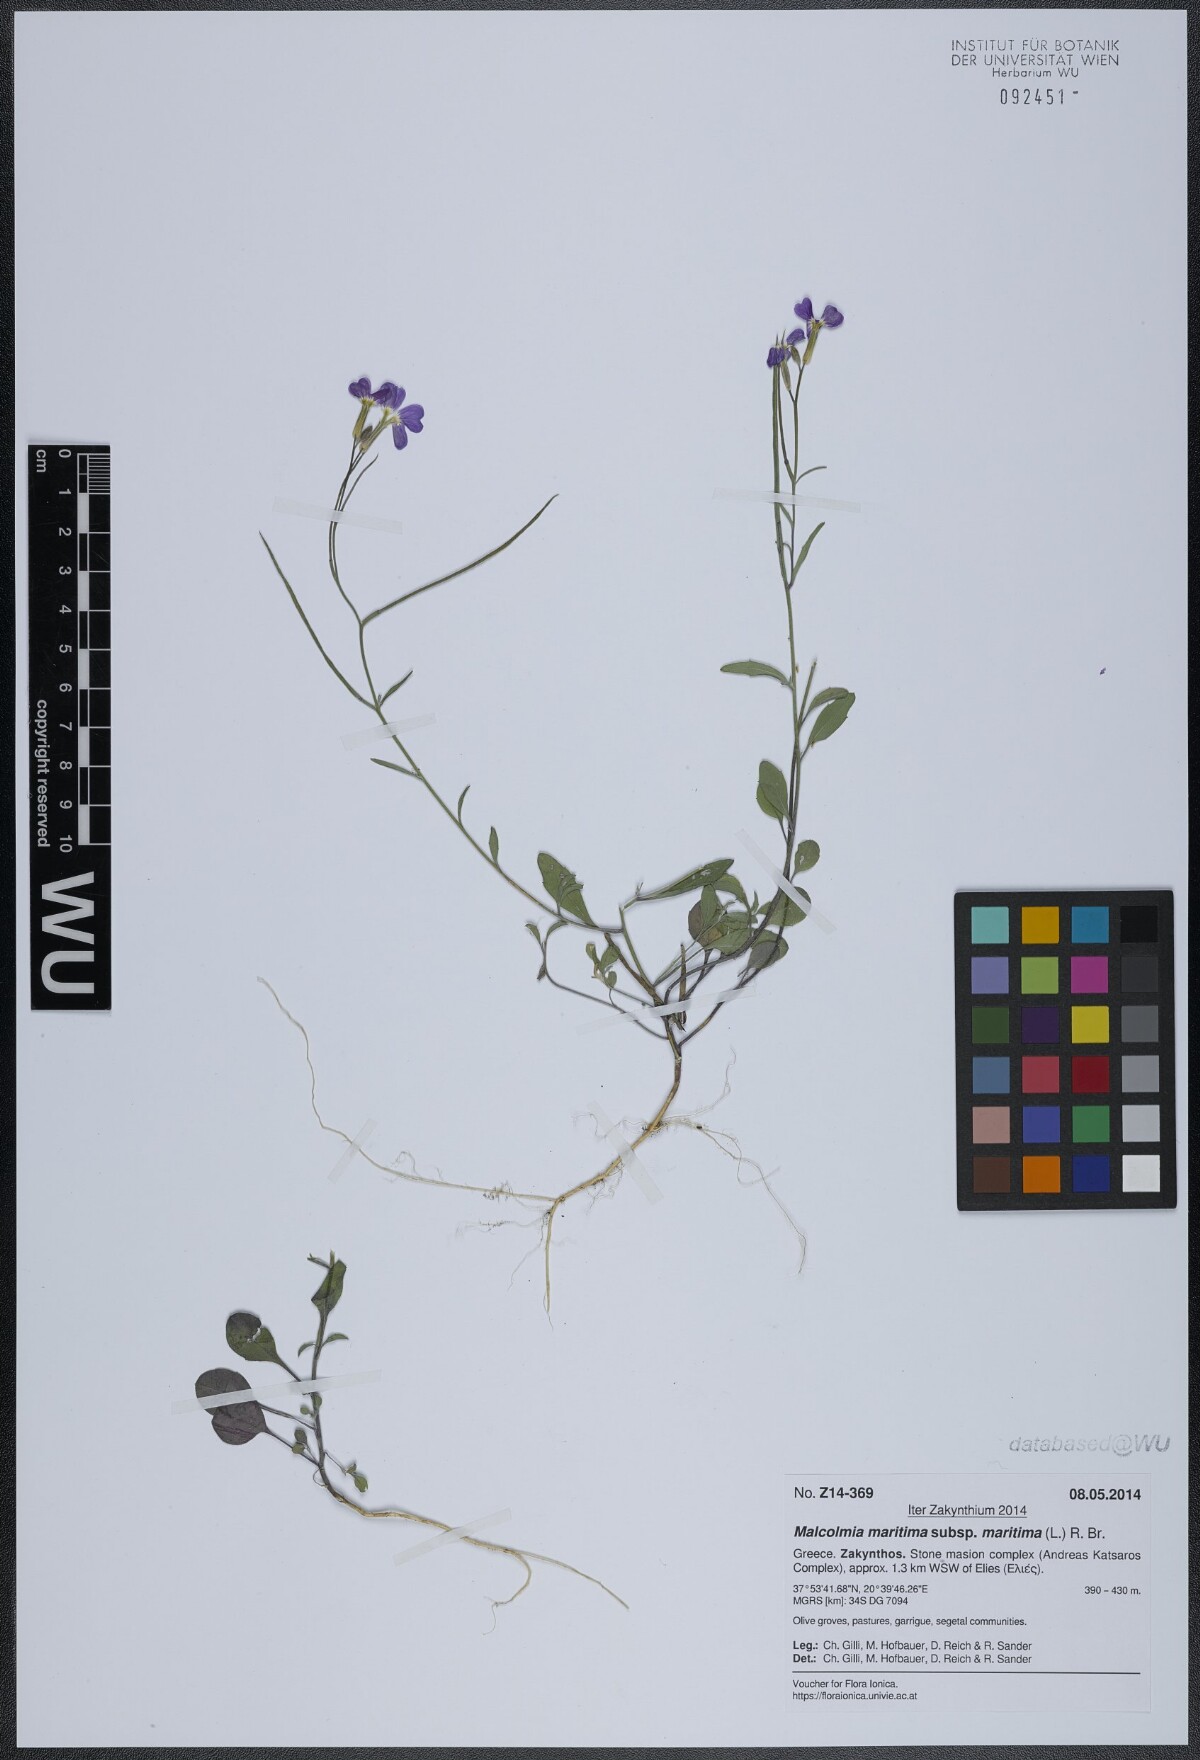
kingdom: Plantae
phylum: Tracheophyta
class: Magnoliopsida
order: Brassicales
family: Brassicaceae
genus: Malcolmia
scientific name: Malcolmia maritima
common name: Virginia stock
